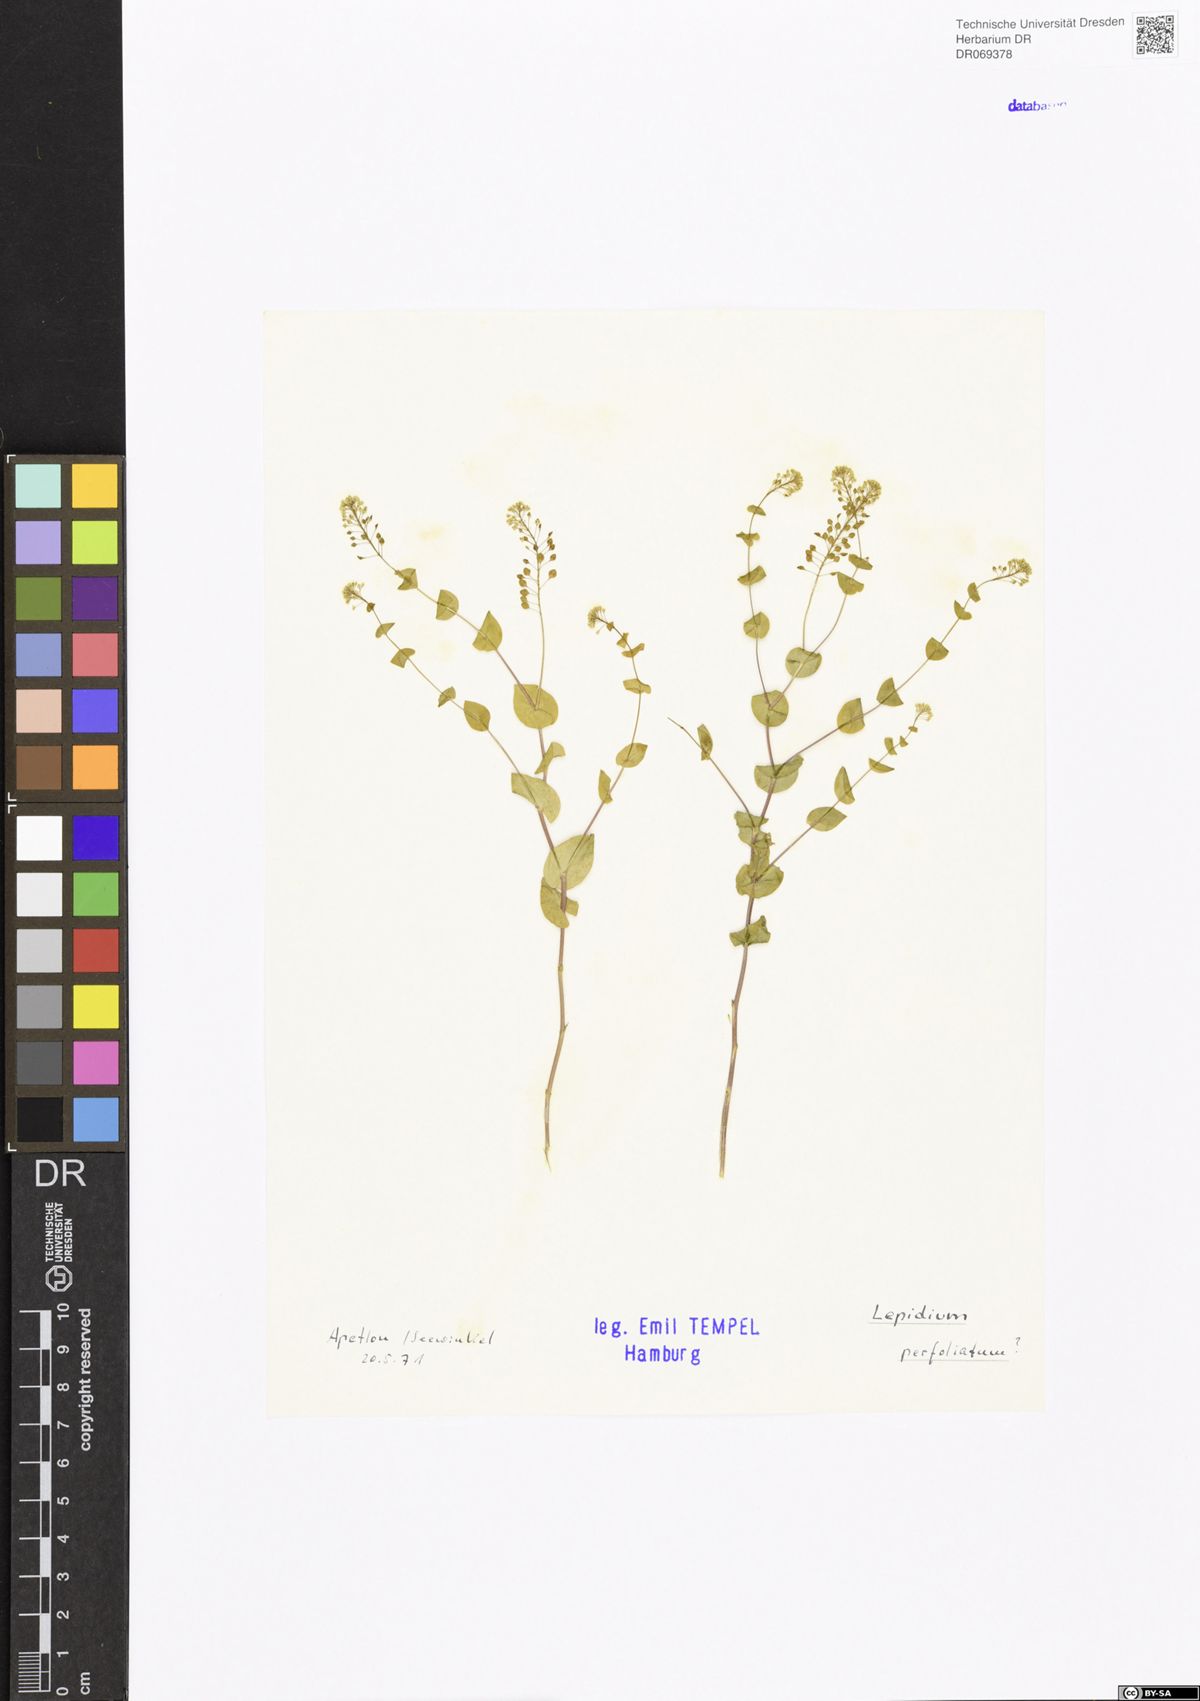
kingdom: Plantae
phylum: Tracheophyta
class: Magnoliopsida
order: Brassicales
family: Brassicaceae
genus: Lepidium
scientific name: Lepidium perfoliatum
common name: Perfoliate pepperwort
